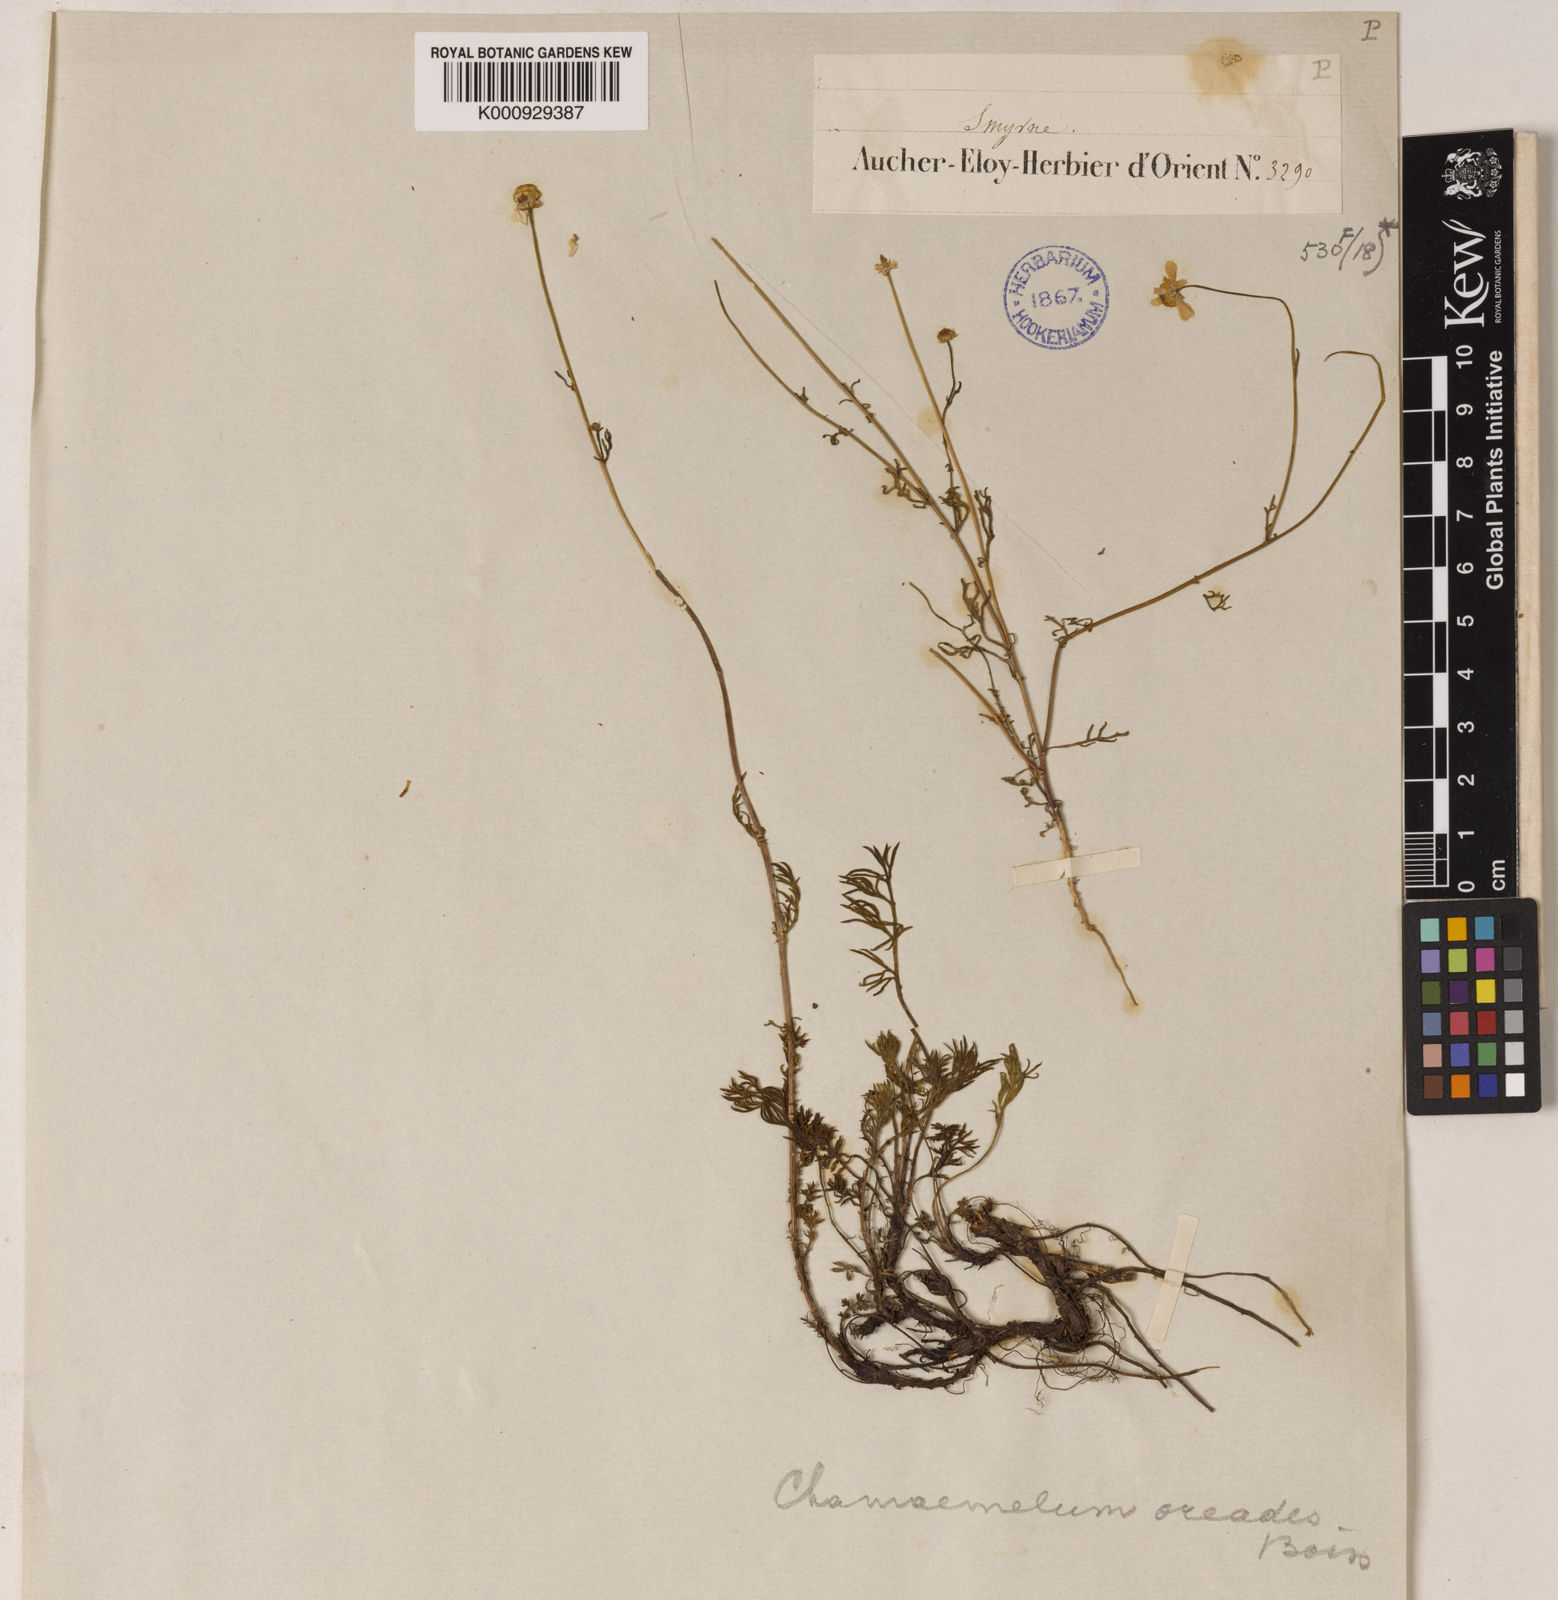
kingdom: Plantae
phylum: Tracheophyta
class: Magnoliopsida
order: Asterales
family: Asteraceae
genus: Tripleurospermum
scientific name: Tripleurospermum caucasicum
